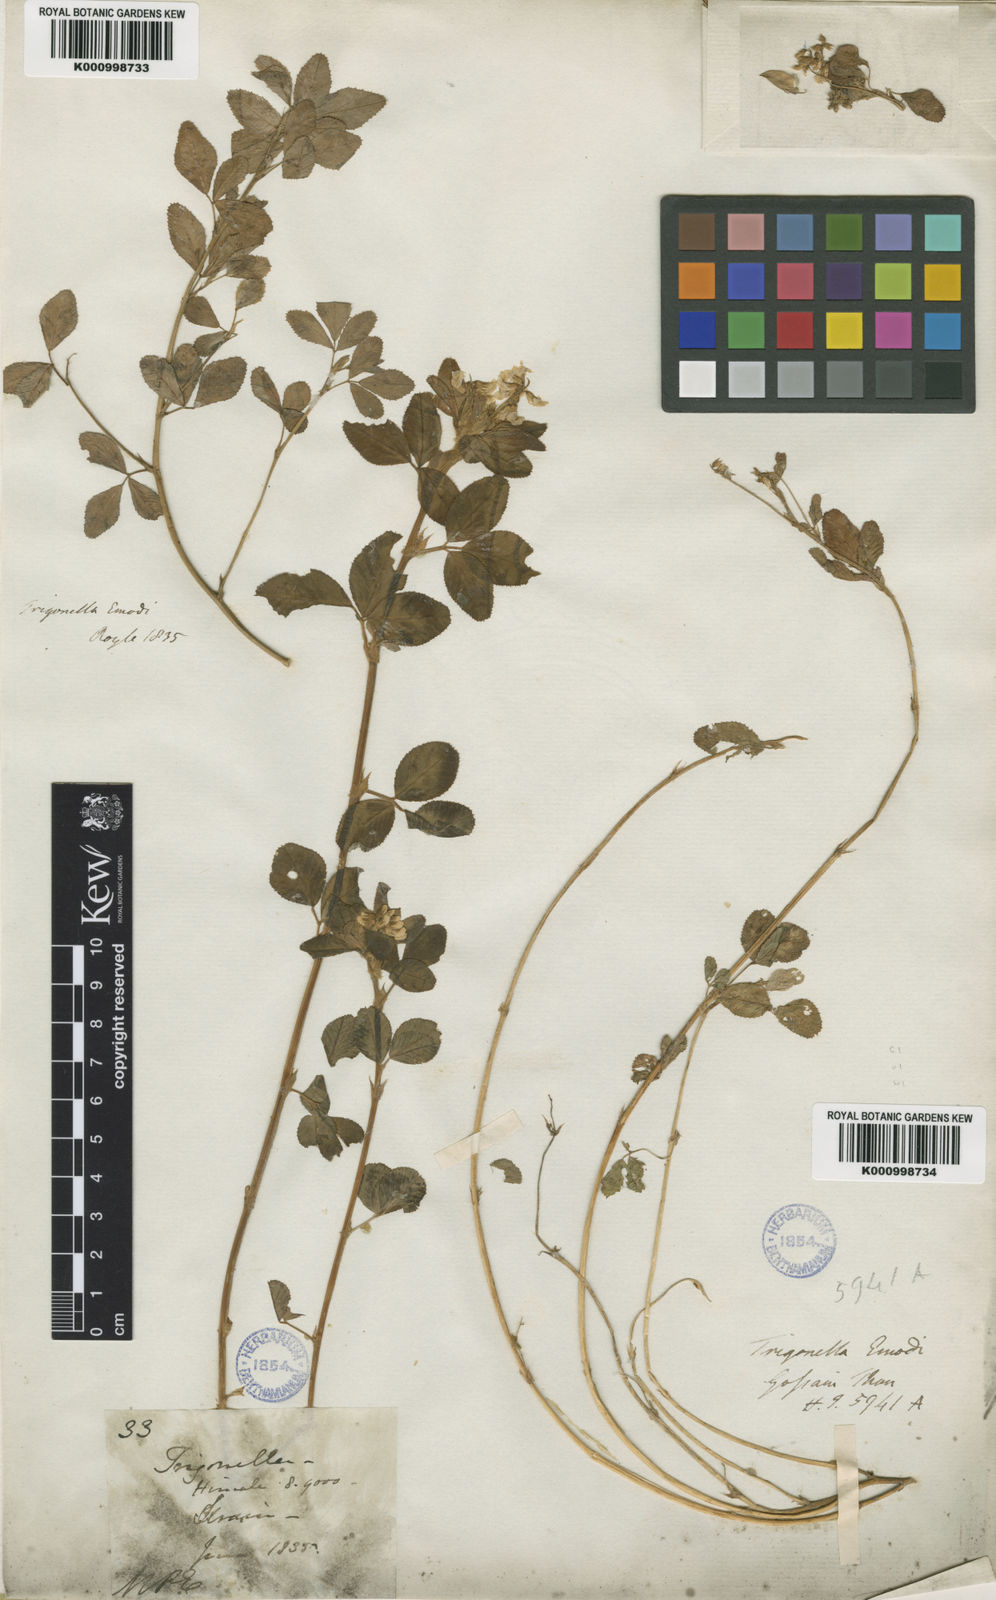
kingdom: Plantae
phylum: Tracheophyta
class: Magnoliopsida
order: Fabales
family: Fabaceae
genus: Trigonella
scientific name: Trigonella emodi
